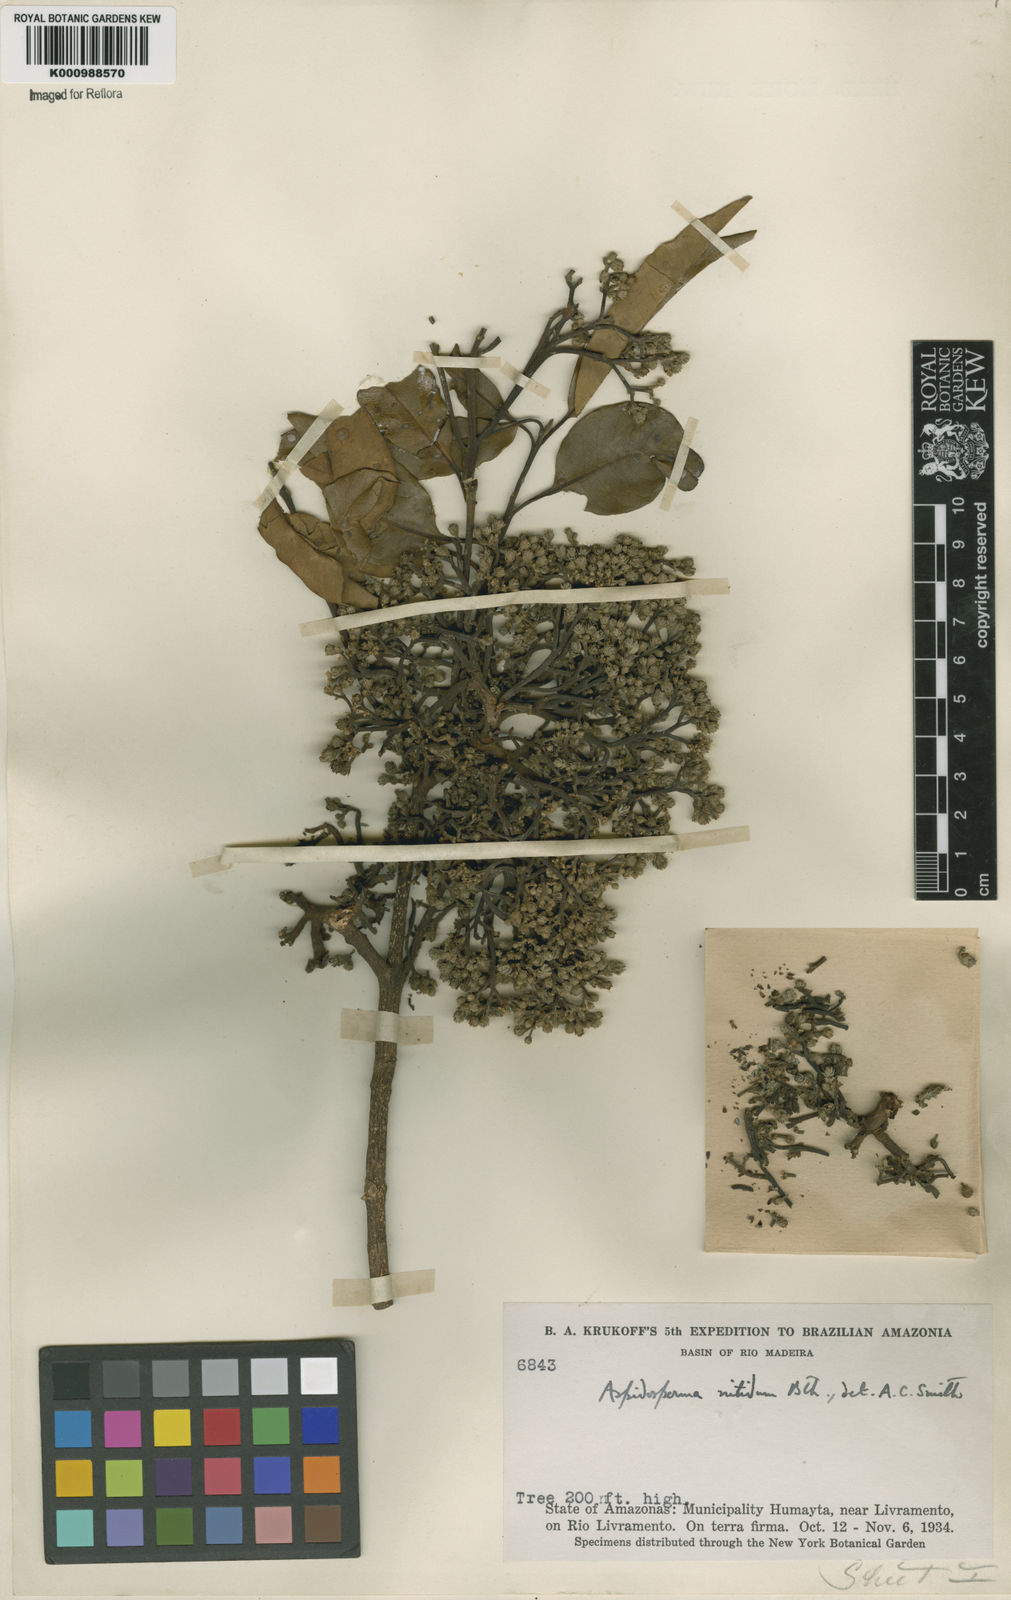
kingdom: Plantae
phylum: Tracheophyta
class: Magnoliopsida
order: Gentianales
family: Apocynaceae
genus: Aspidosperma
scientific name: Aspidosperma
